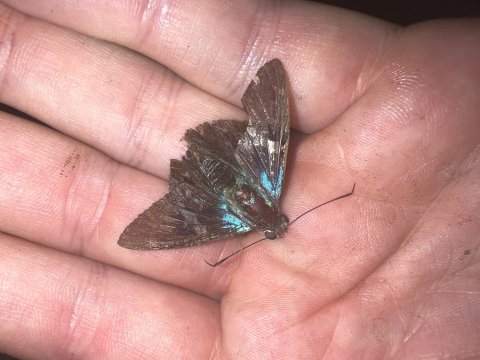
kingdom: Animalia
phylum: Arthropoda
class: Insecta
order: Lepidoptera
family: Hesperiidae
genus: Astraptes
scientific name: Astraptes
